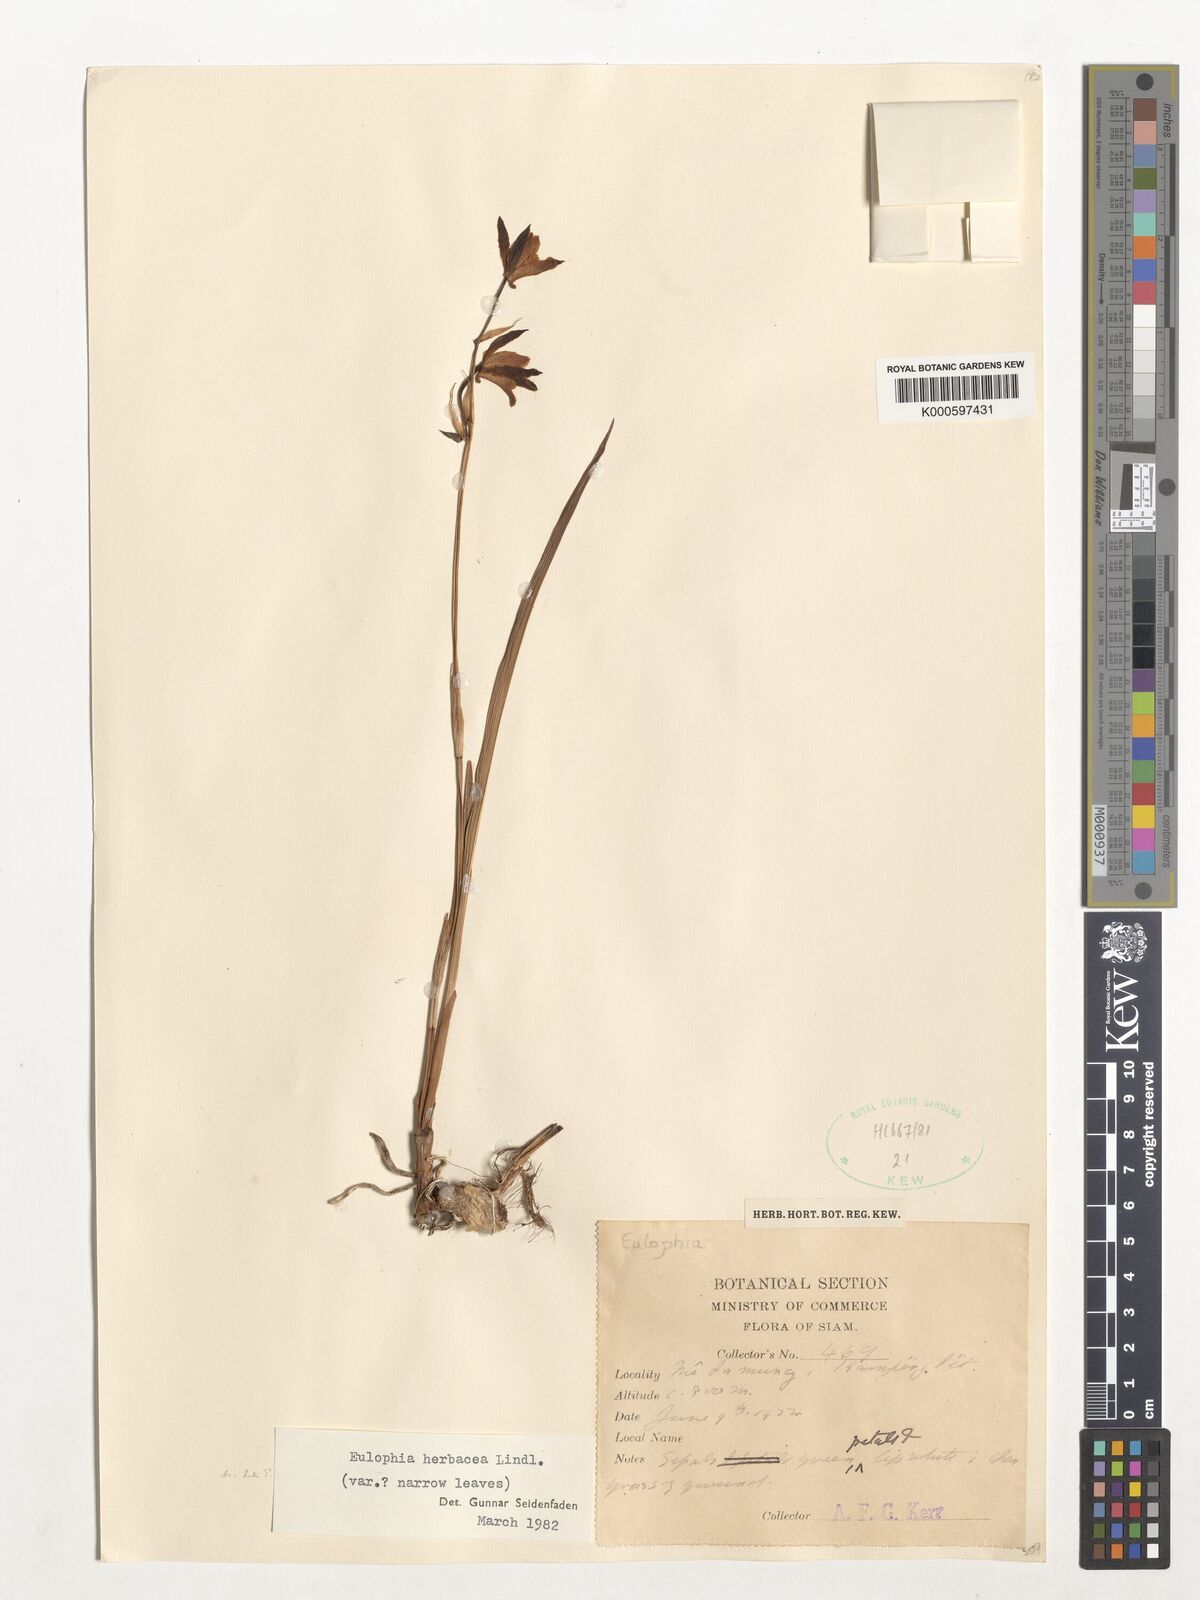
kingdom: Plantae
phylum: Tracheophyta
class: Liliopsida
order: Asparagales
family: Orchidaceae
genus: Eulophia
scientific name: Eulophia herbacea
